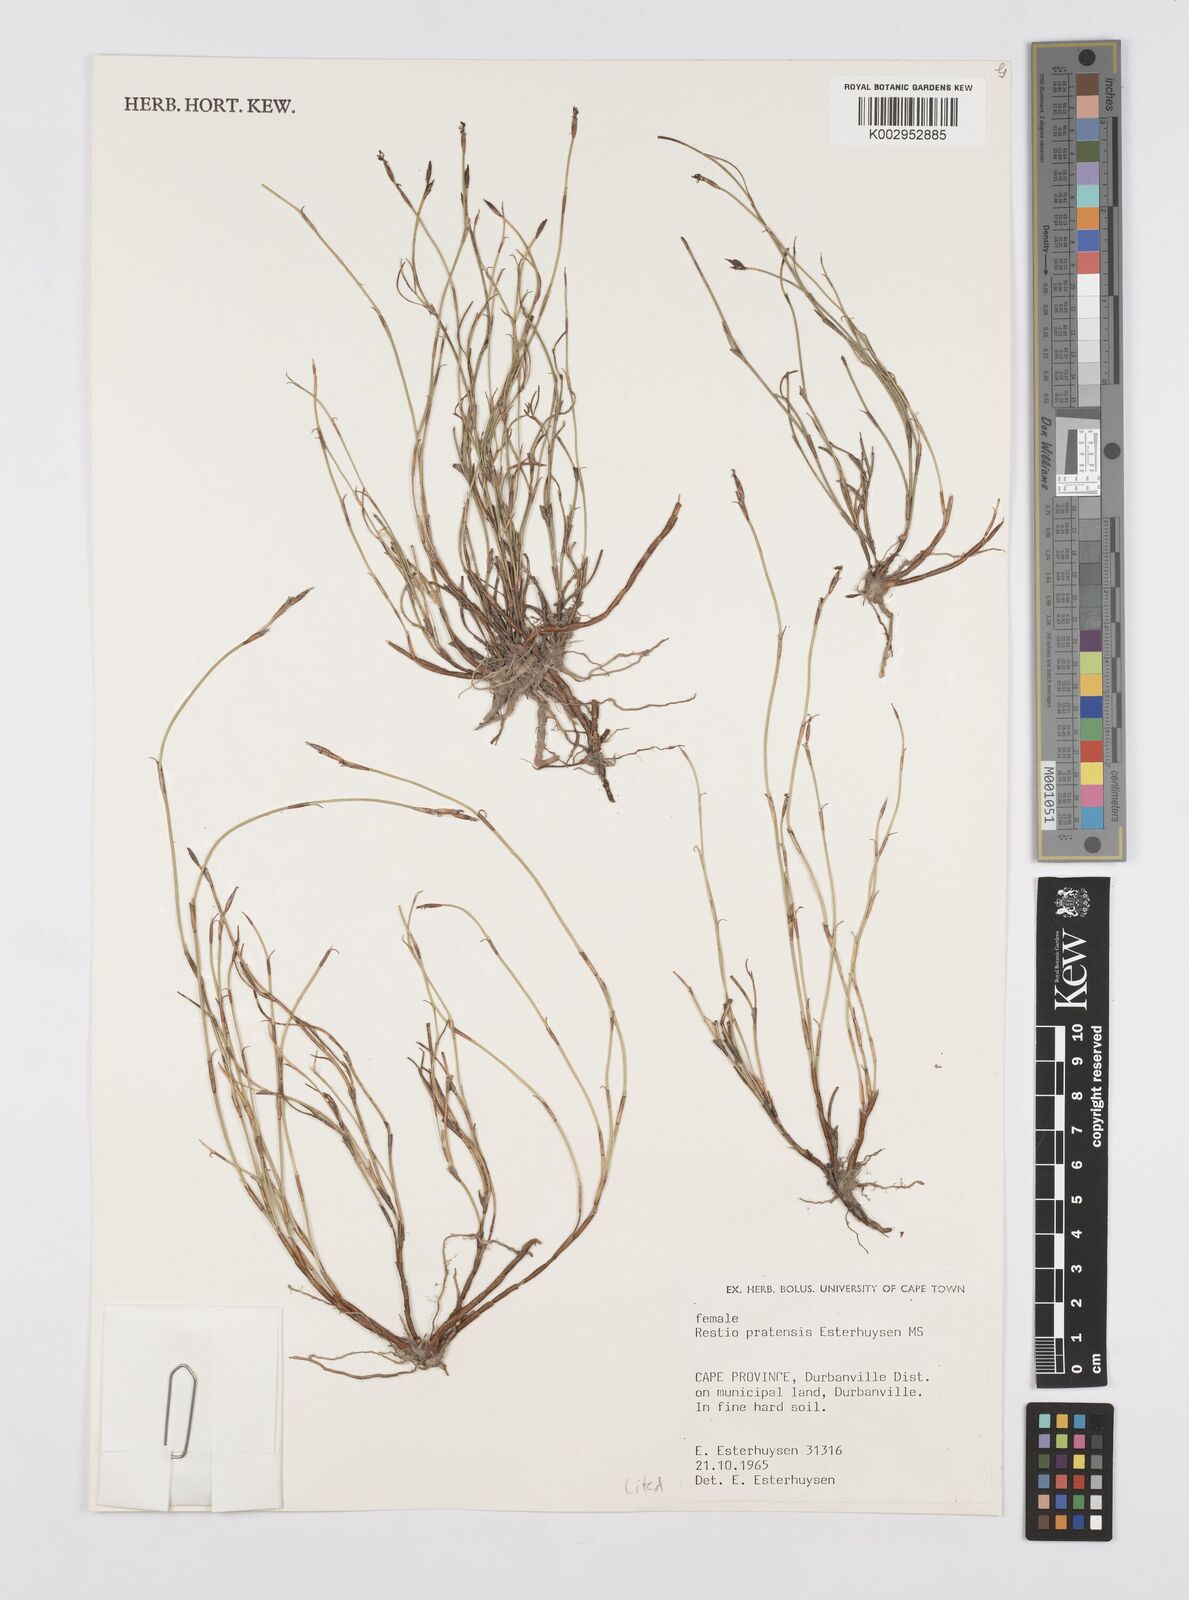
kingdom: Plantae
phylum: Tracheophyta
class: Liliopsida
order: Poales
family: Restionaceae
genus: Restio
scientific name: Restio pratensis
